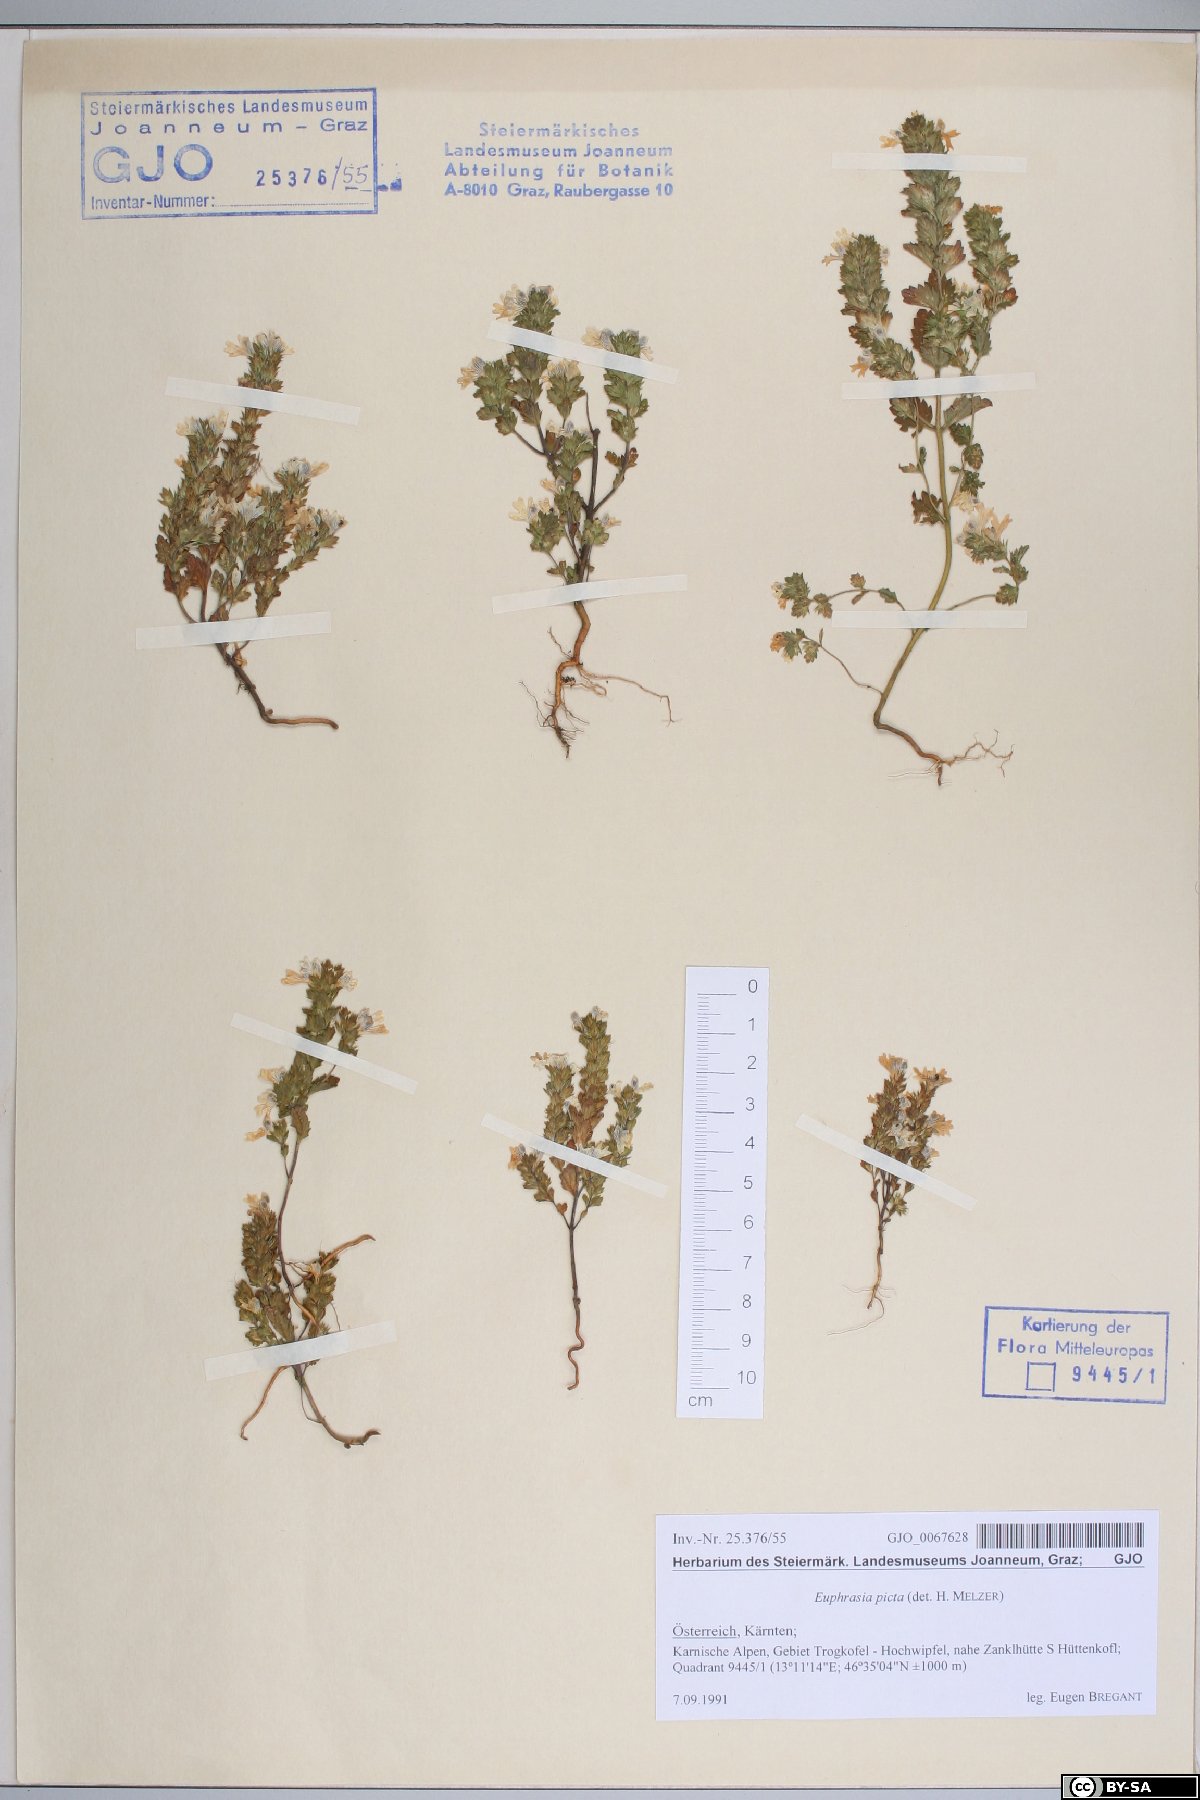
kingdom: Plantae
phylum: Tracheophyta
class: Magnoliopsida
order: Lamiales
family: Orobanchaceae
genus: Euphrasia
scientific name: Euphrasia picta
